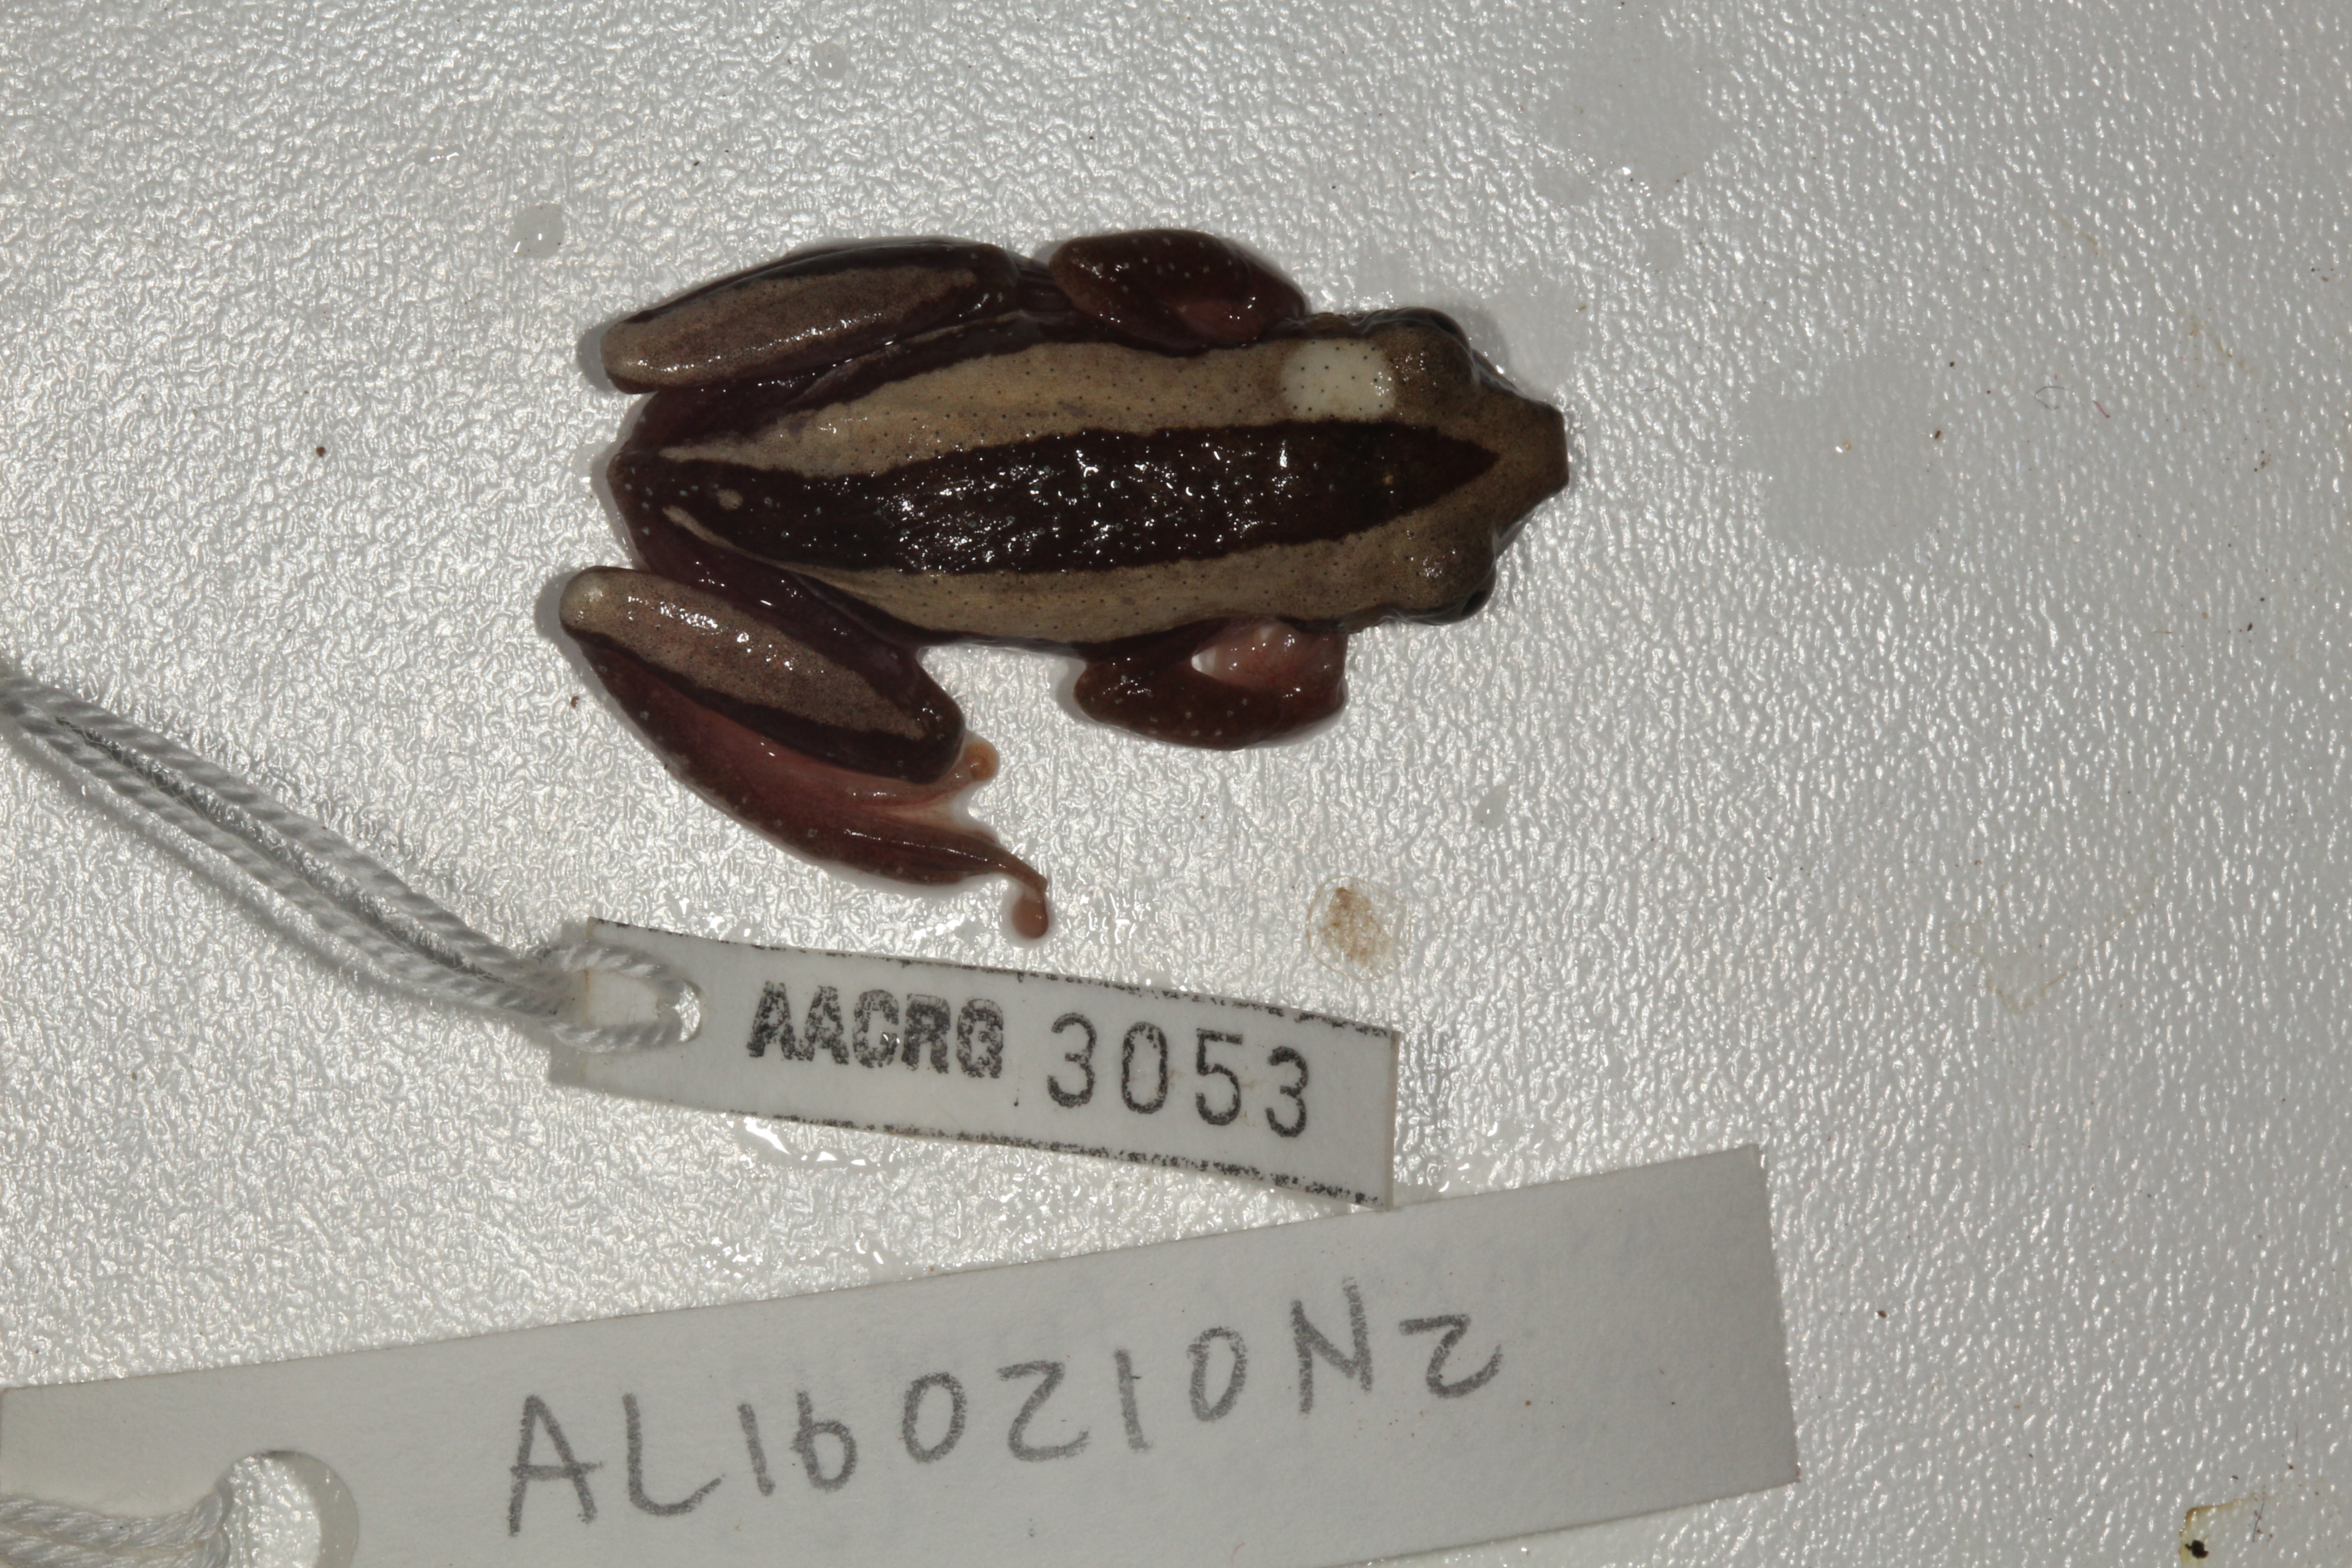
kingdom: Animalia
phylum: Chordata
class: Amphibia
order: Anura
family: Hyperoliidae
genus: Afrixalus
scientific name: Afrixalus fornasini
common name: Fornasini's spiny reed frog
